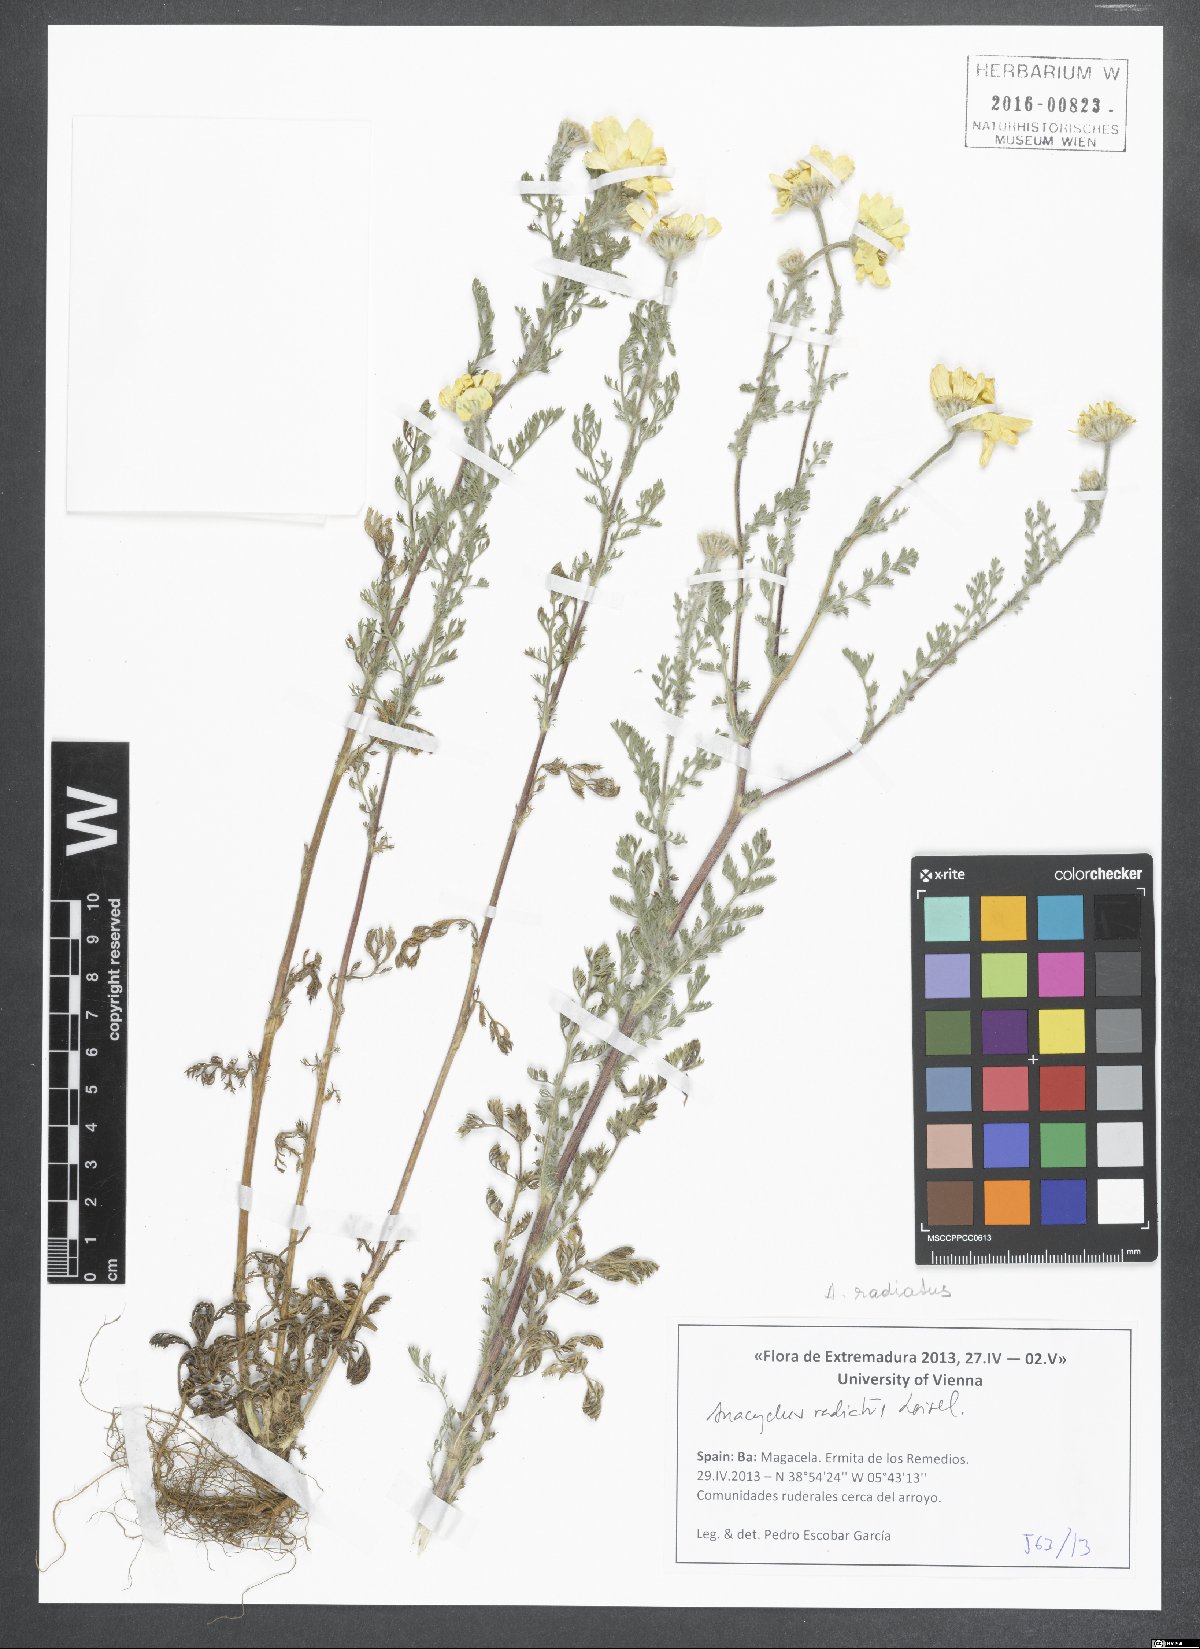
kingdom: Plantae
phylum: Tracheophyta
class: Magnoliopsida
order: Asterales
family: Asteraceae
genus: Anacyclus
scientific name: Anacyclus radiatus
